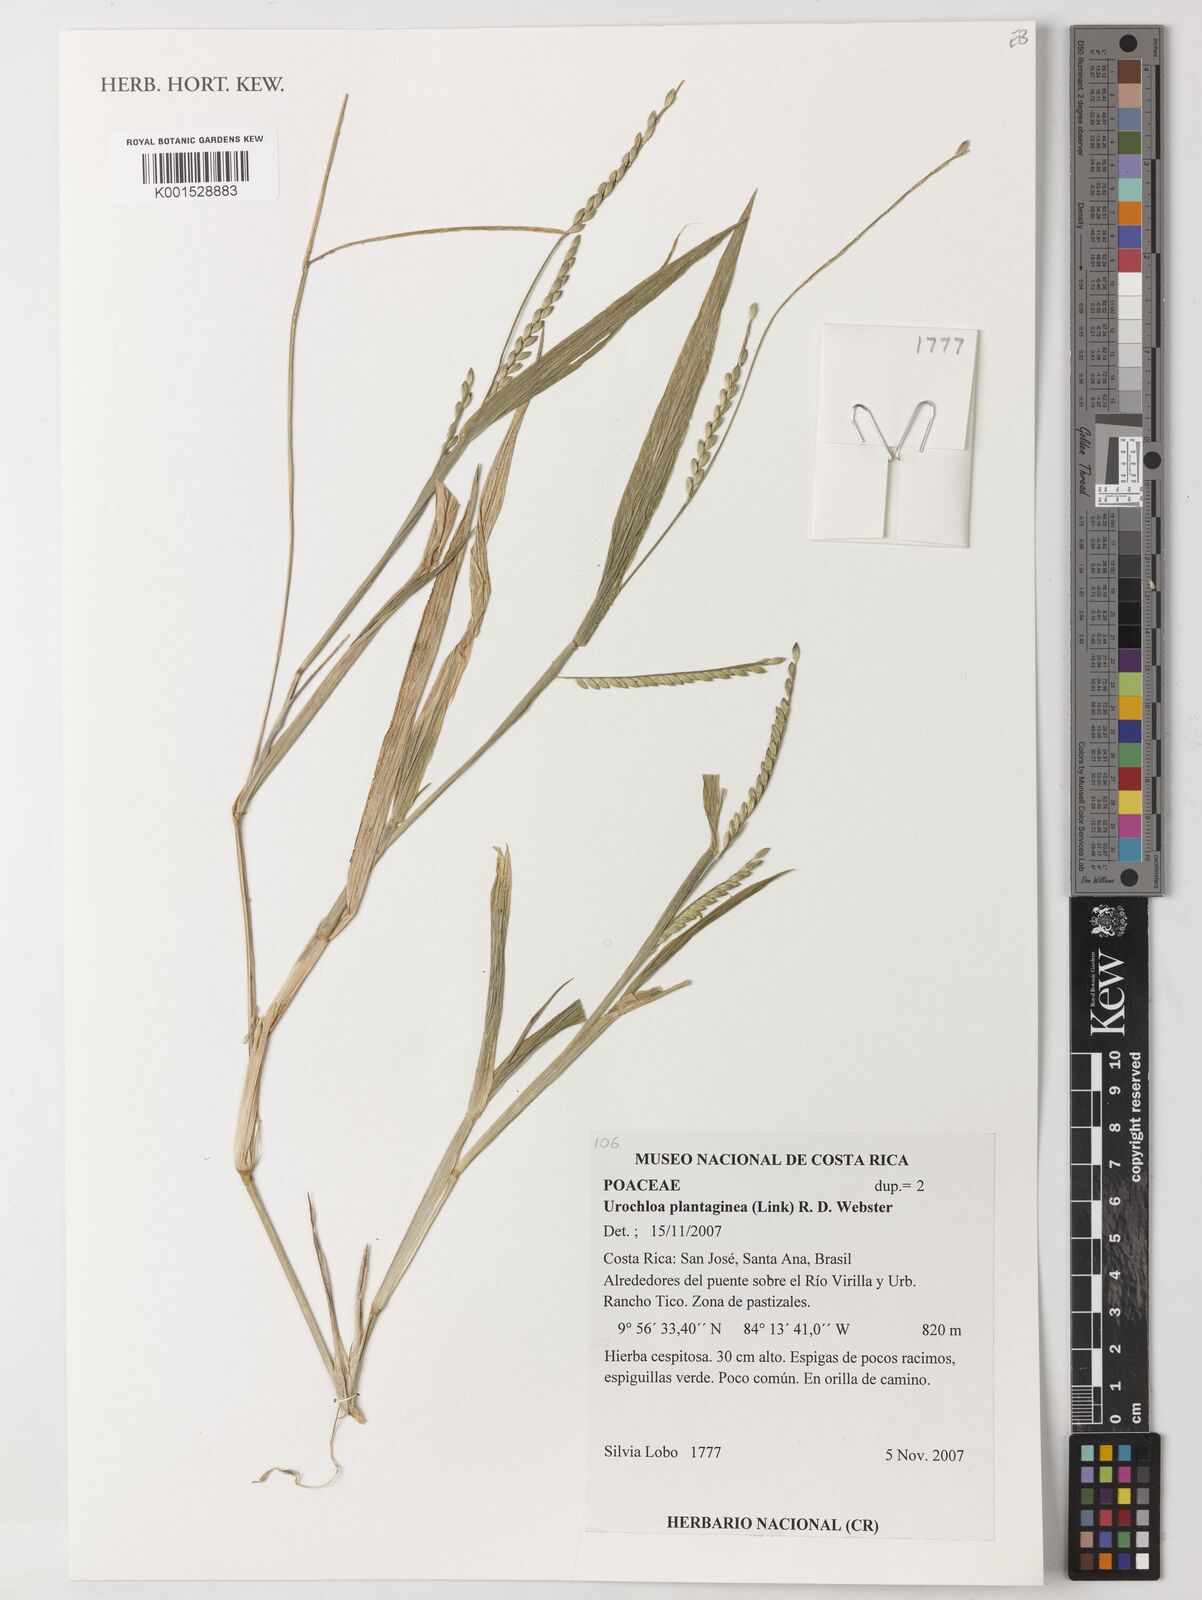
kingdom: Plantae
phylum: Tracheophyta
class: Liliopsida
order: Poales
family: Poaceae
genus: Urochloa
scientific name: Urochloa plantaginea
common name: Plantain signalgrass
